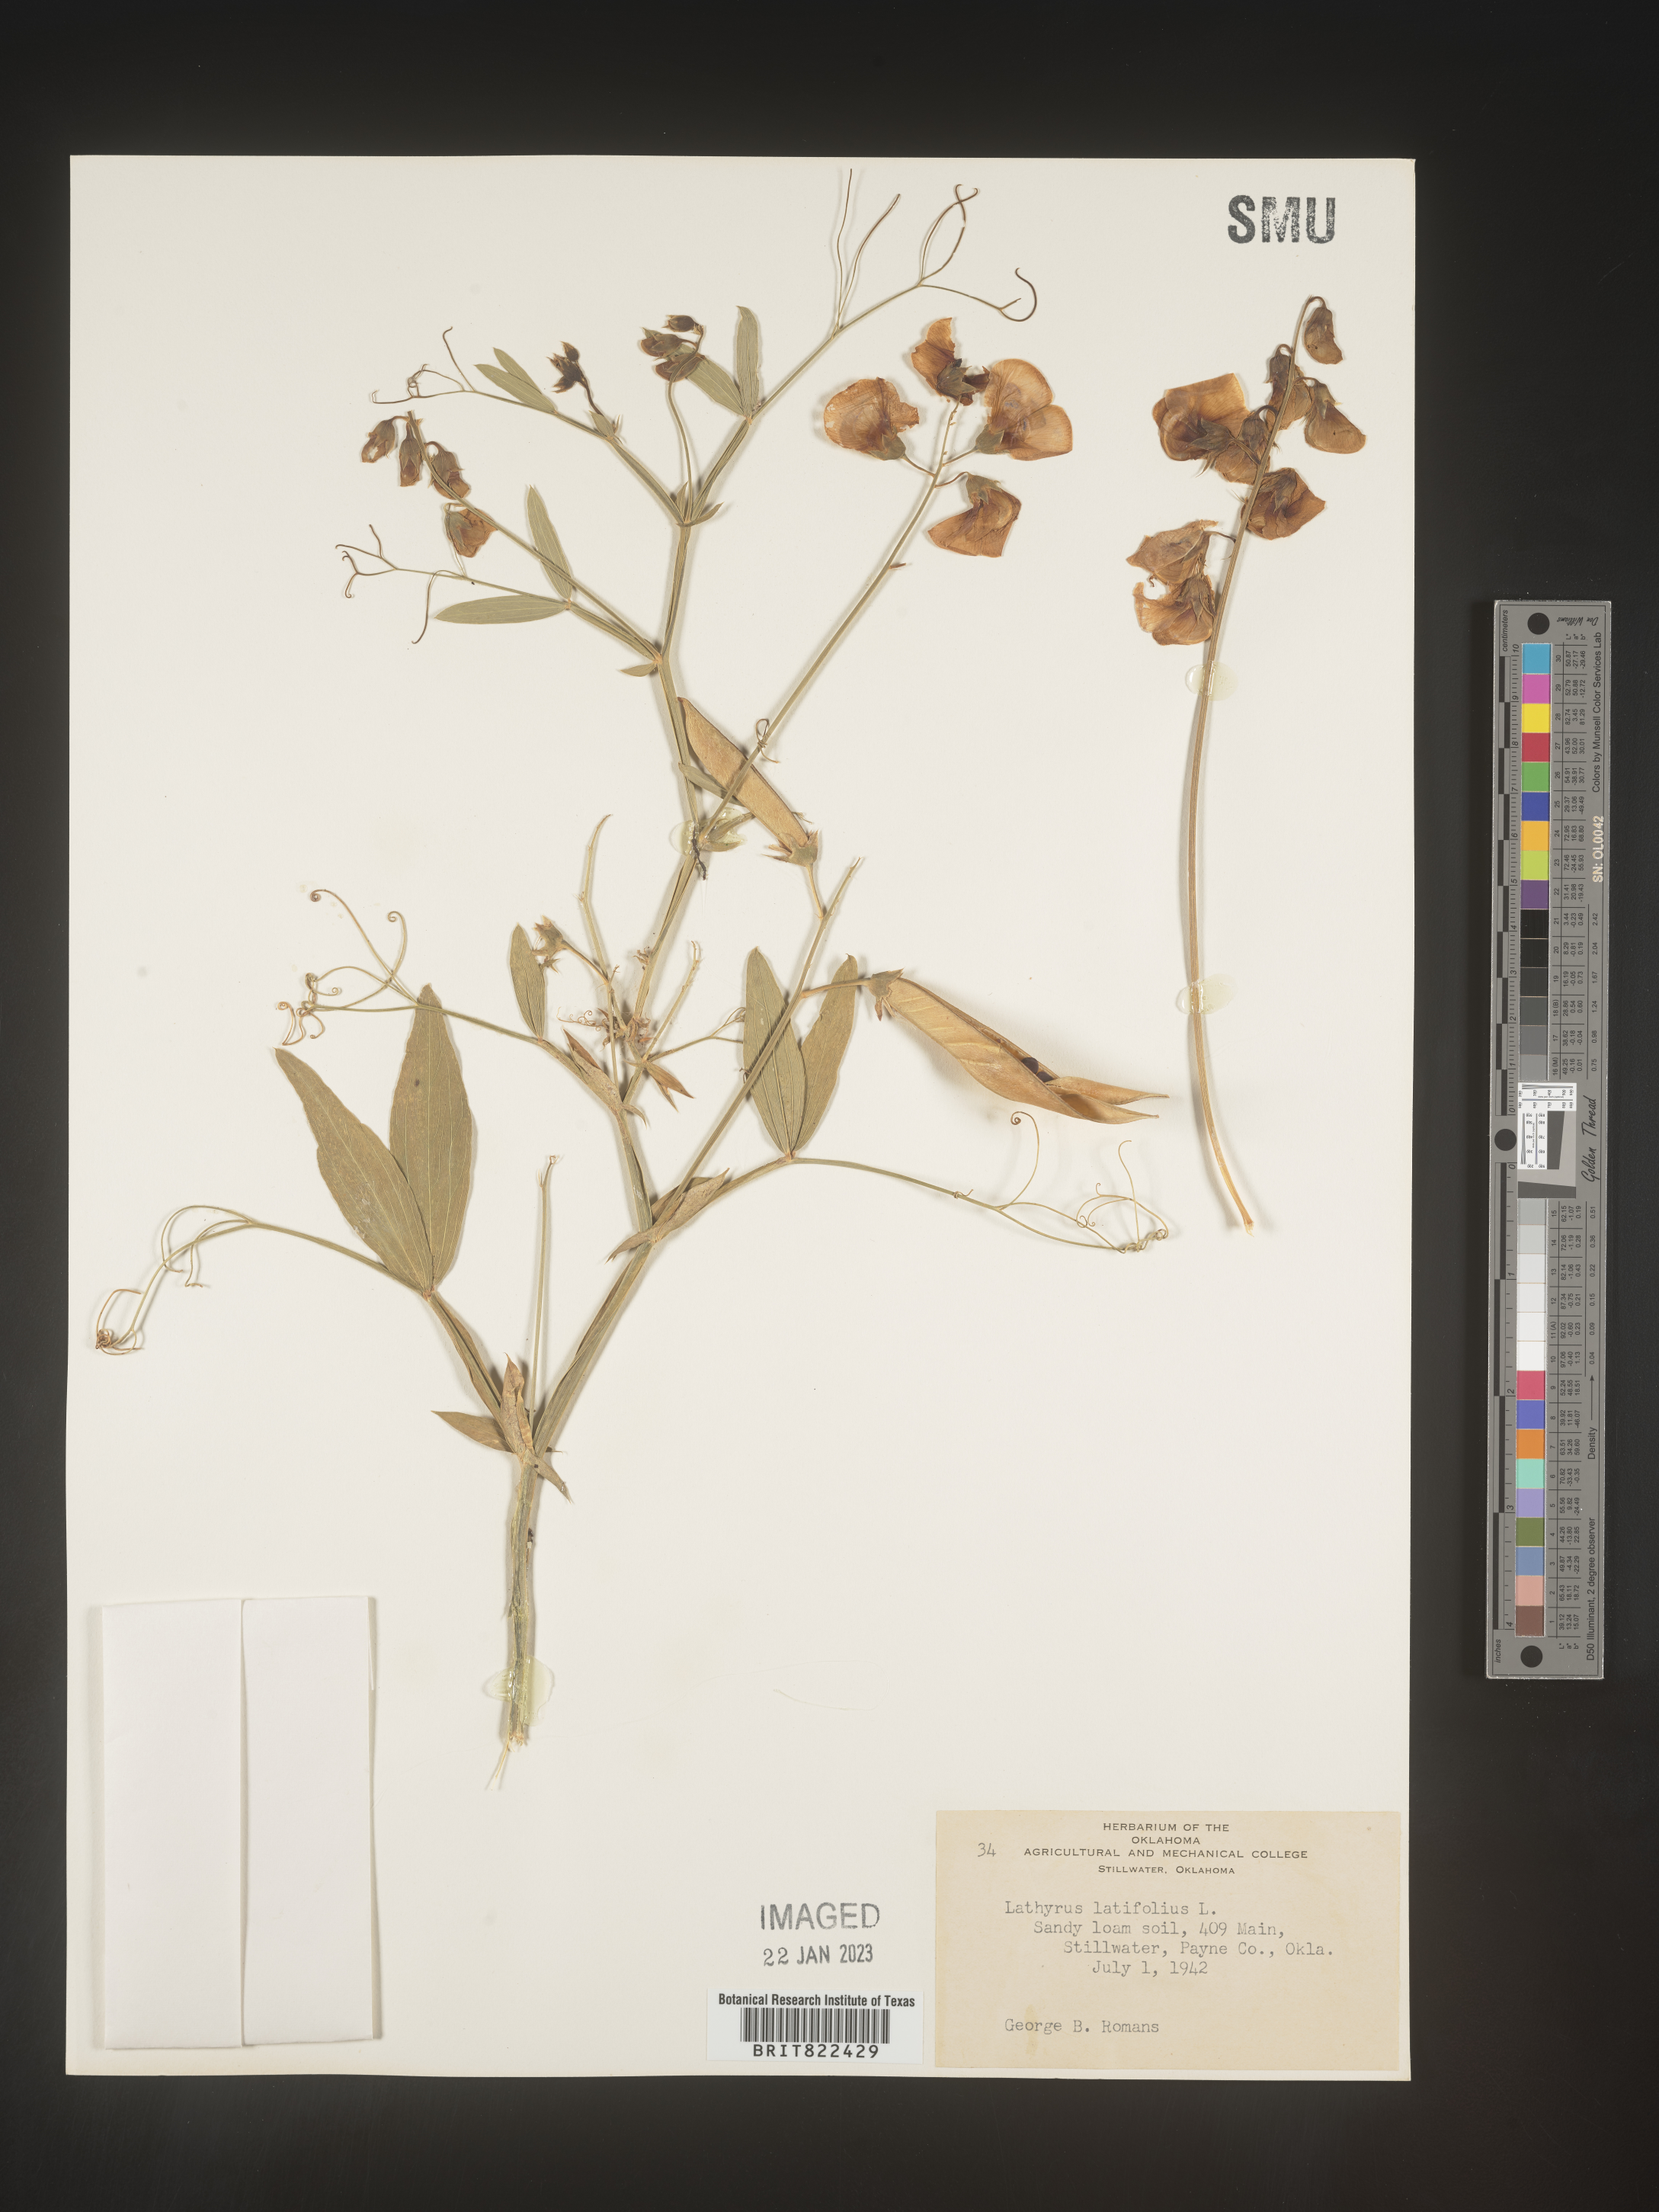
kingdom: Plantae
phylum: Tracheophyta
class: Magnoliopsida
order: Fabales
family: Fabaceae
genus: Lathyrus
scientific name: Lathyrus
